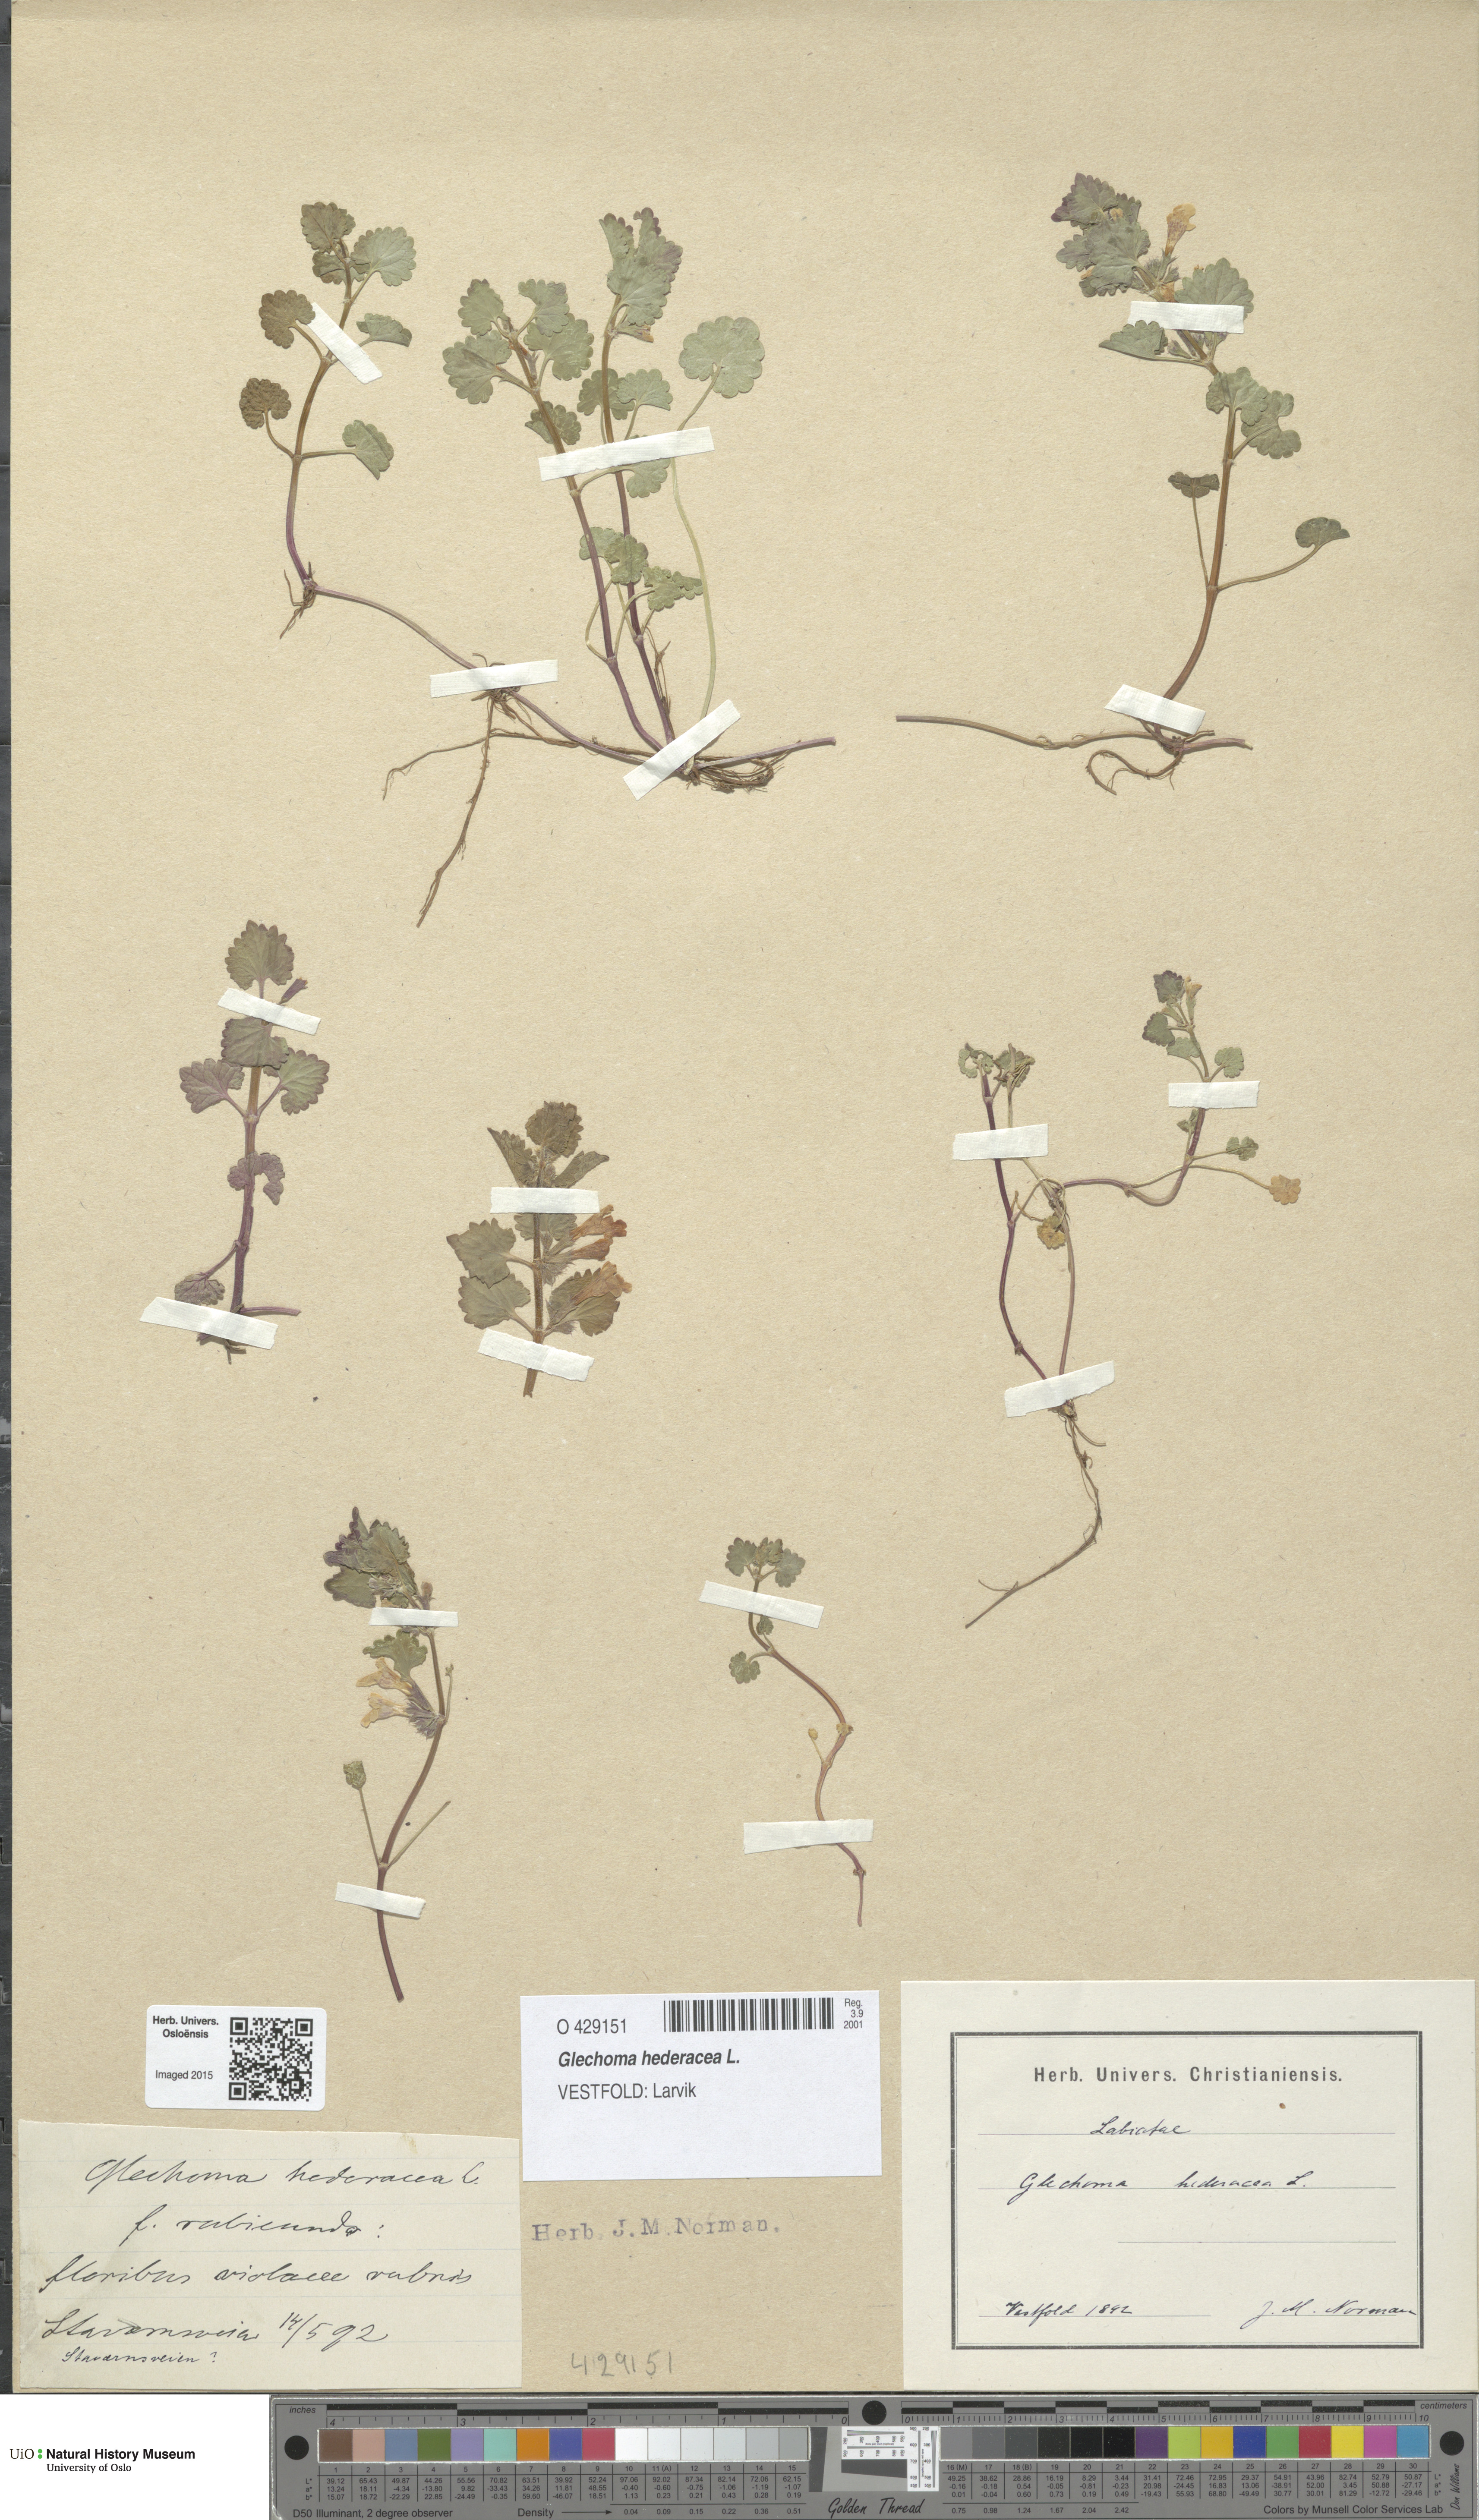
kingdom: Plantae
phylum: Tracheophyta
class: Magnoliopsida
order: Lamiales
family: Lamiaceae
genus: Glechoma
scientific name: Glechoma hederacea
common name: Ground ivy
